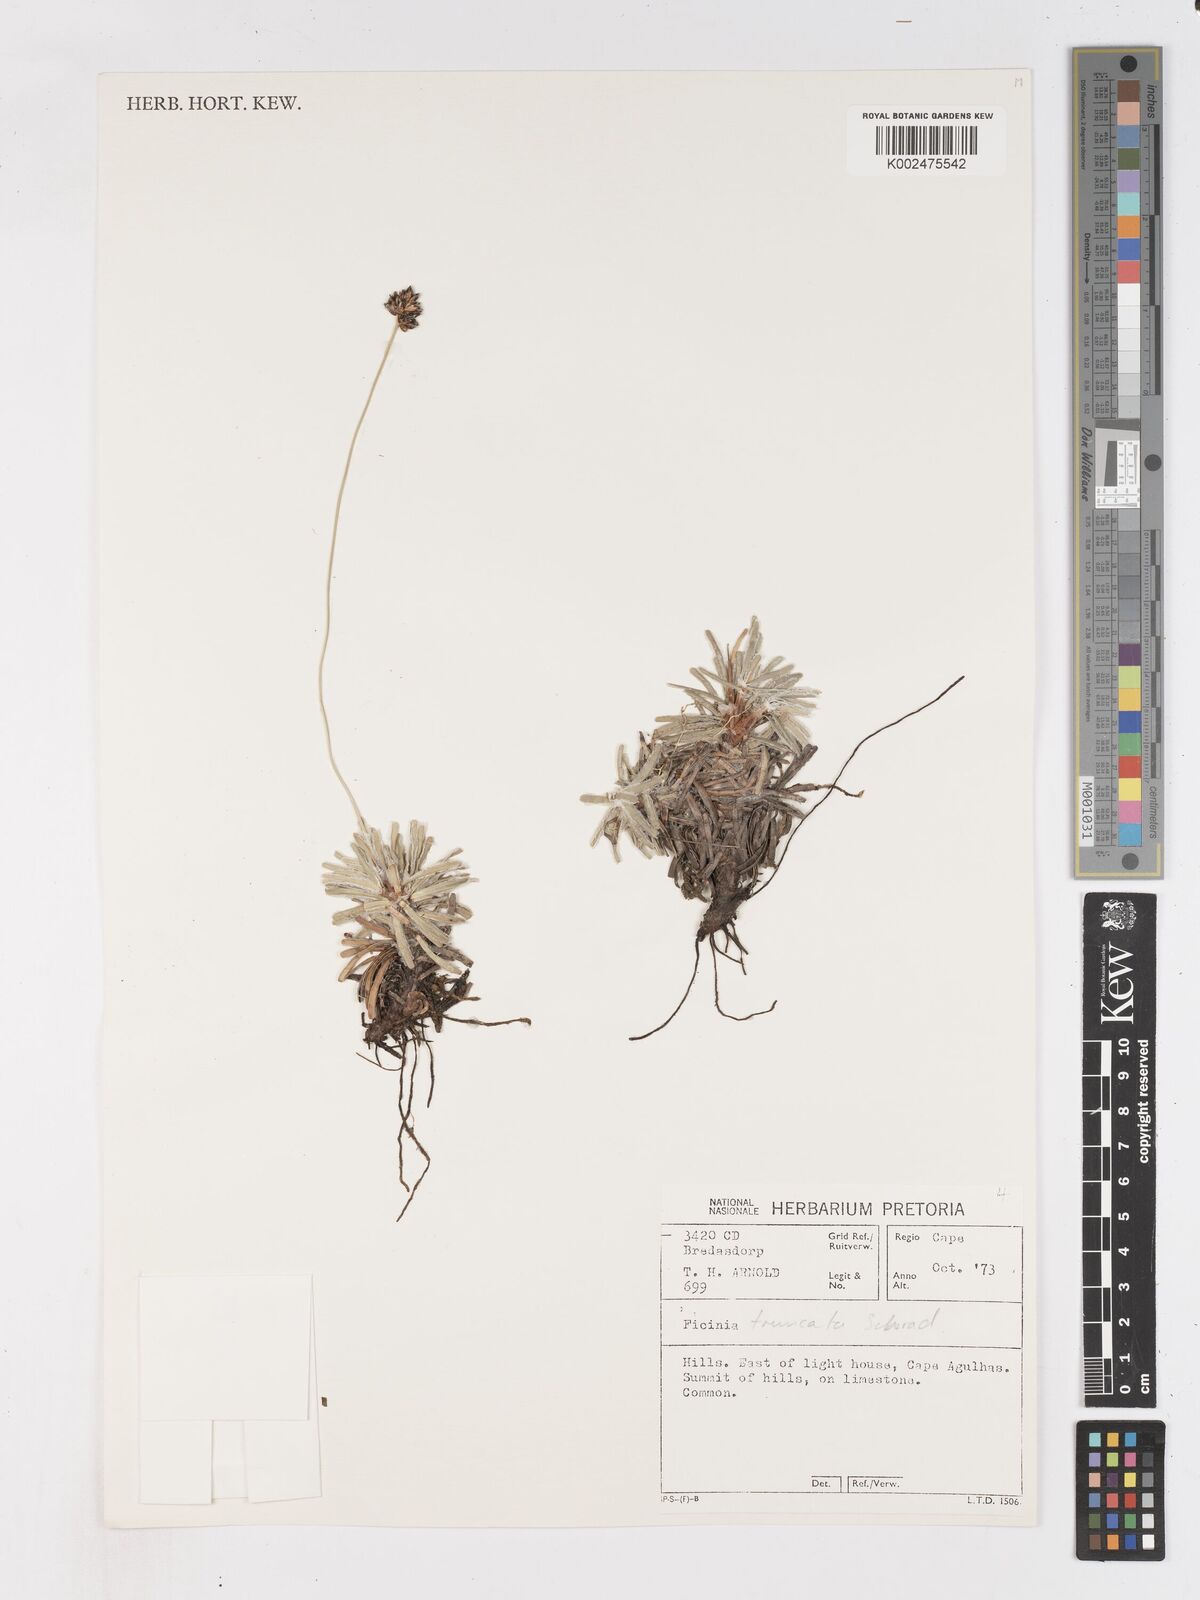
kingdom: Plantae
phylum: Tracheophyta
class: Liliopsida
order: Poales
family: Cyperaceae
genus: Ficinia
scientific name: Ficinia truncata
